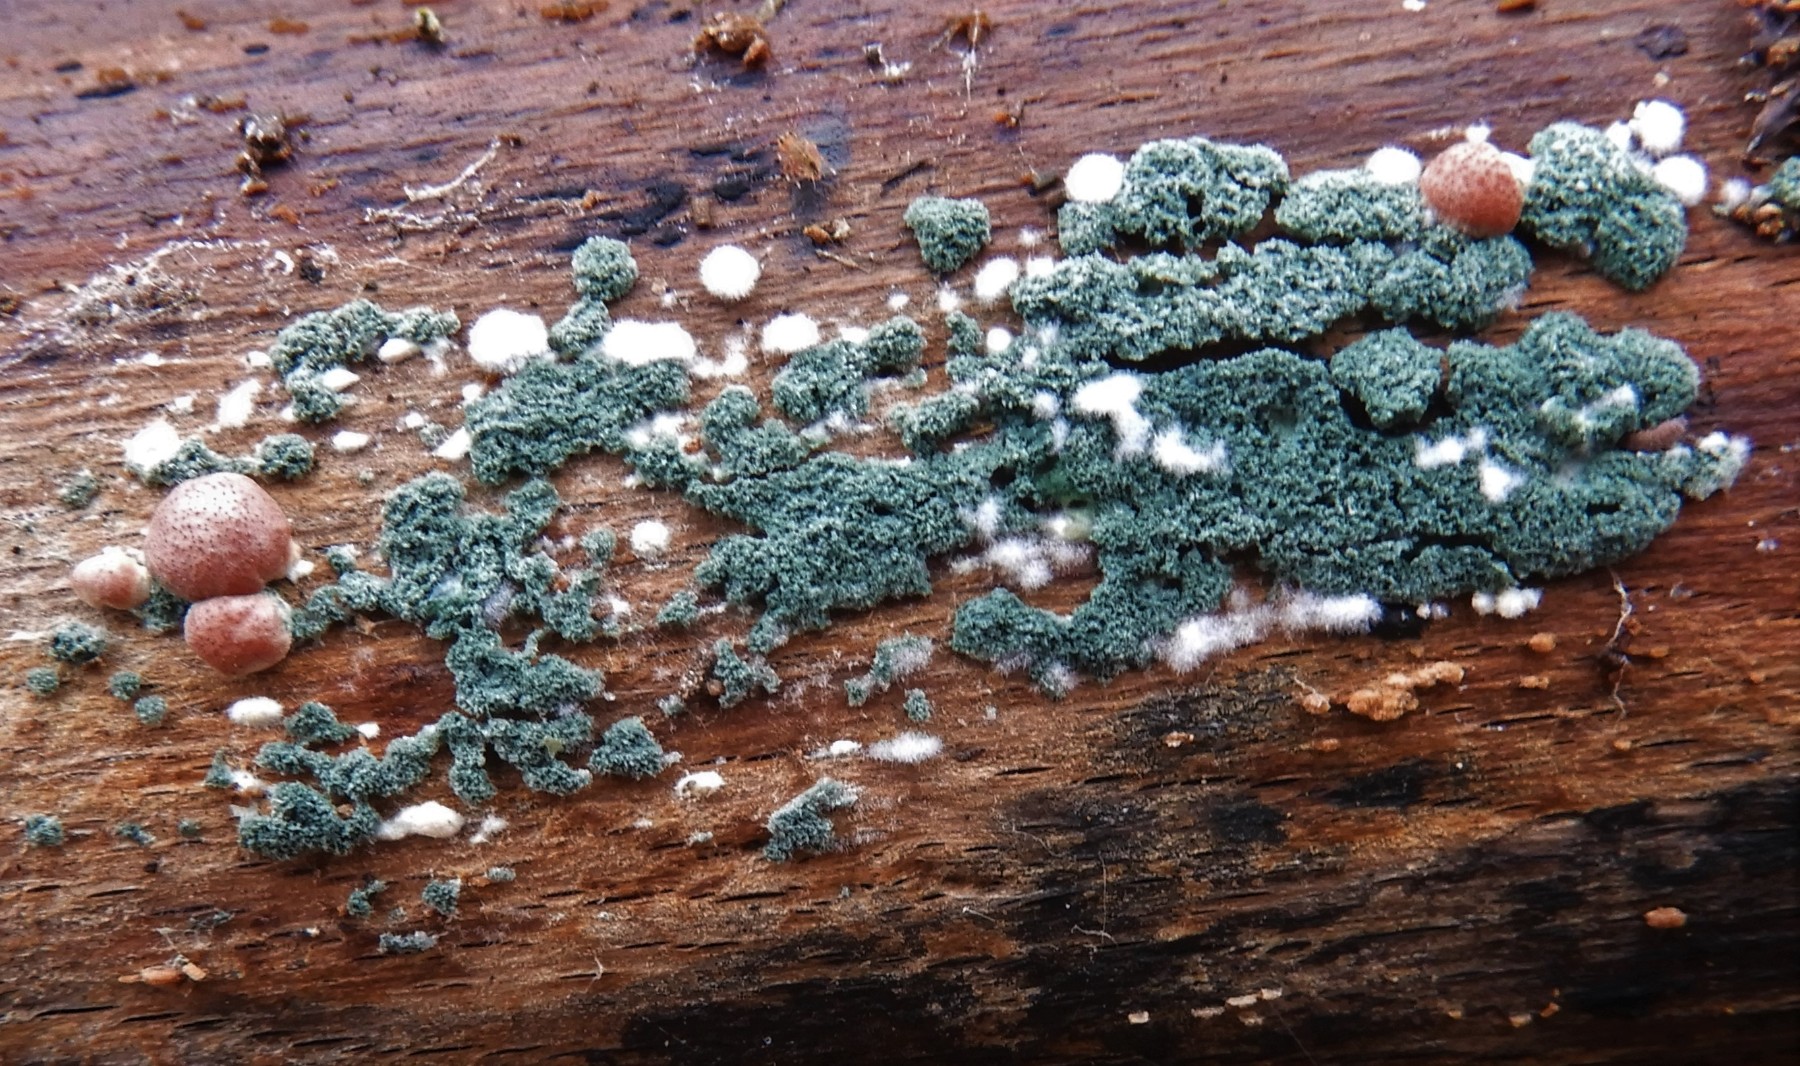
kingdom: Fungi
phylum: Ascomycota
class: Sordariomycetes
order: Hypocreales
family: Hypocreaceae
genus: Trichoderma
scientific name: Trichoderma europaeum
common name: rosabrun kødkerne
